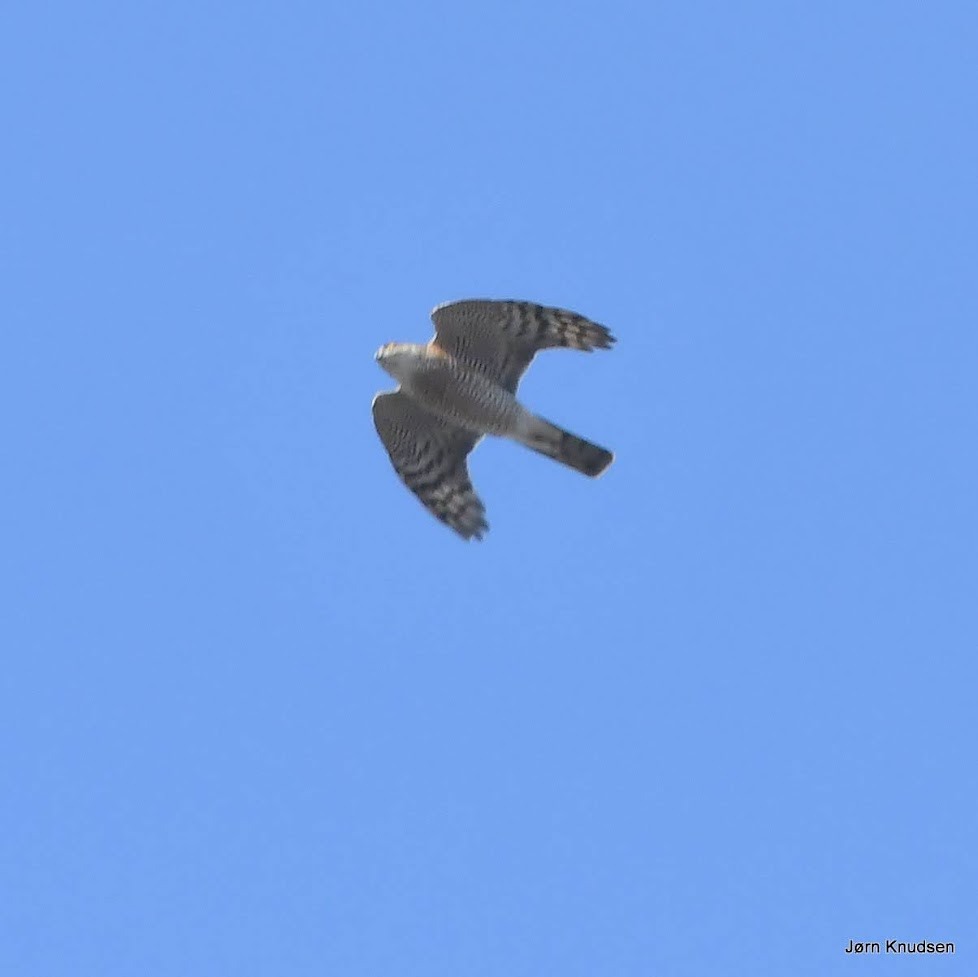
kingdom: Animalia
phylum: Chordata
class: Aves
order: Accipitriformes
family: Accipitridae
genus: Accipiter
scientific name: Accipiter nisus
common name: Spurvehøg
